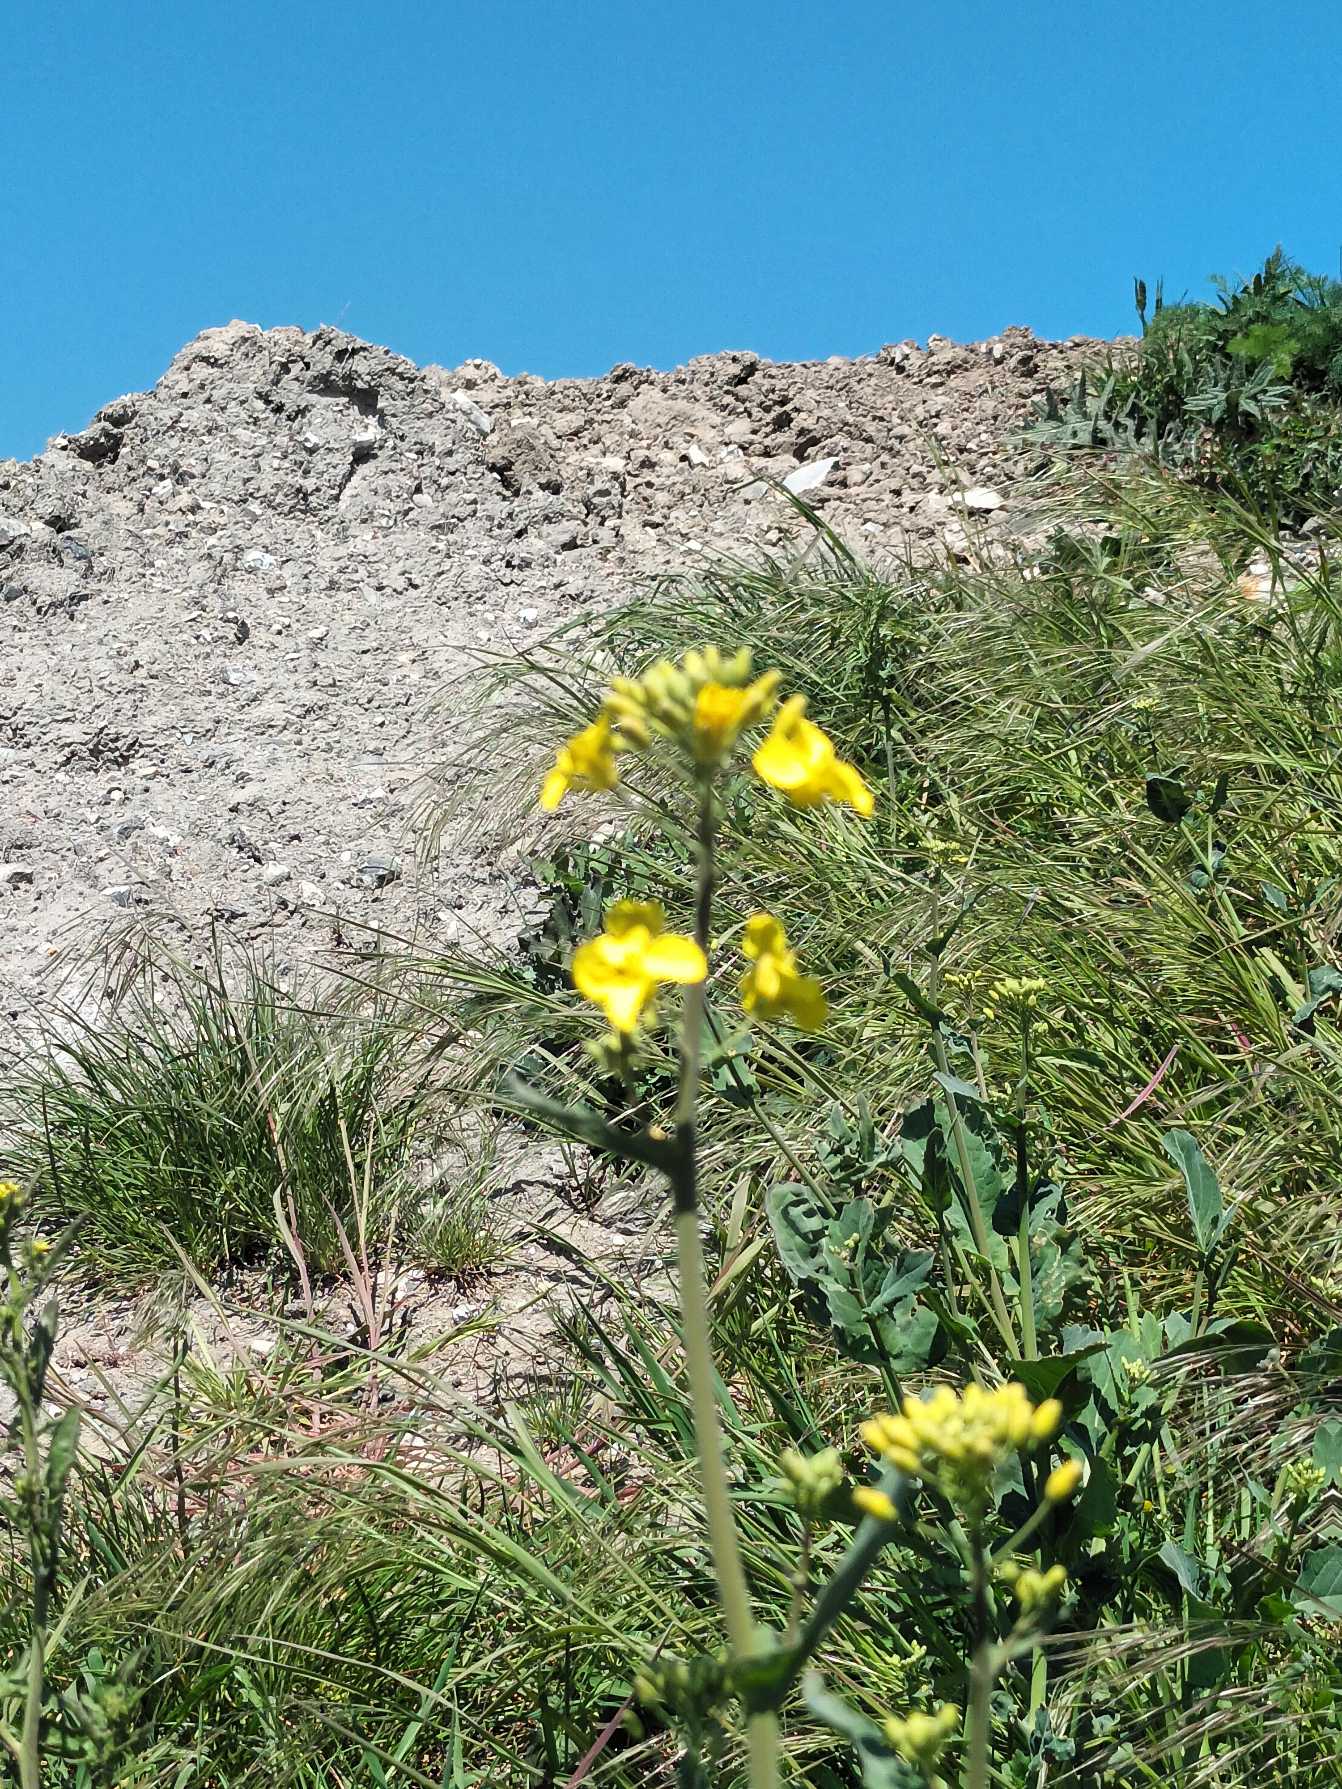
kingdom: Plantae
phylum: Tracheophyta
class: Magnoliopsida
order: Brassicales
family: Brassicaceae
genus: Brassica
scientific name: Brassica napus
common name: Raps
